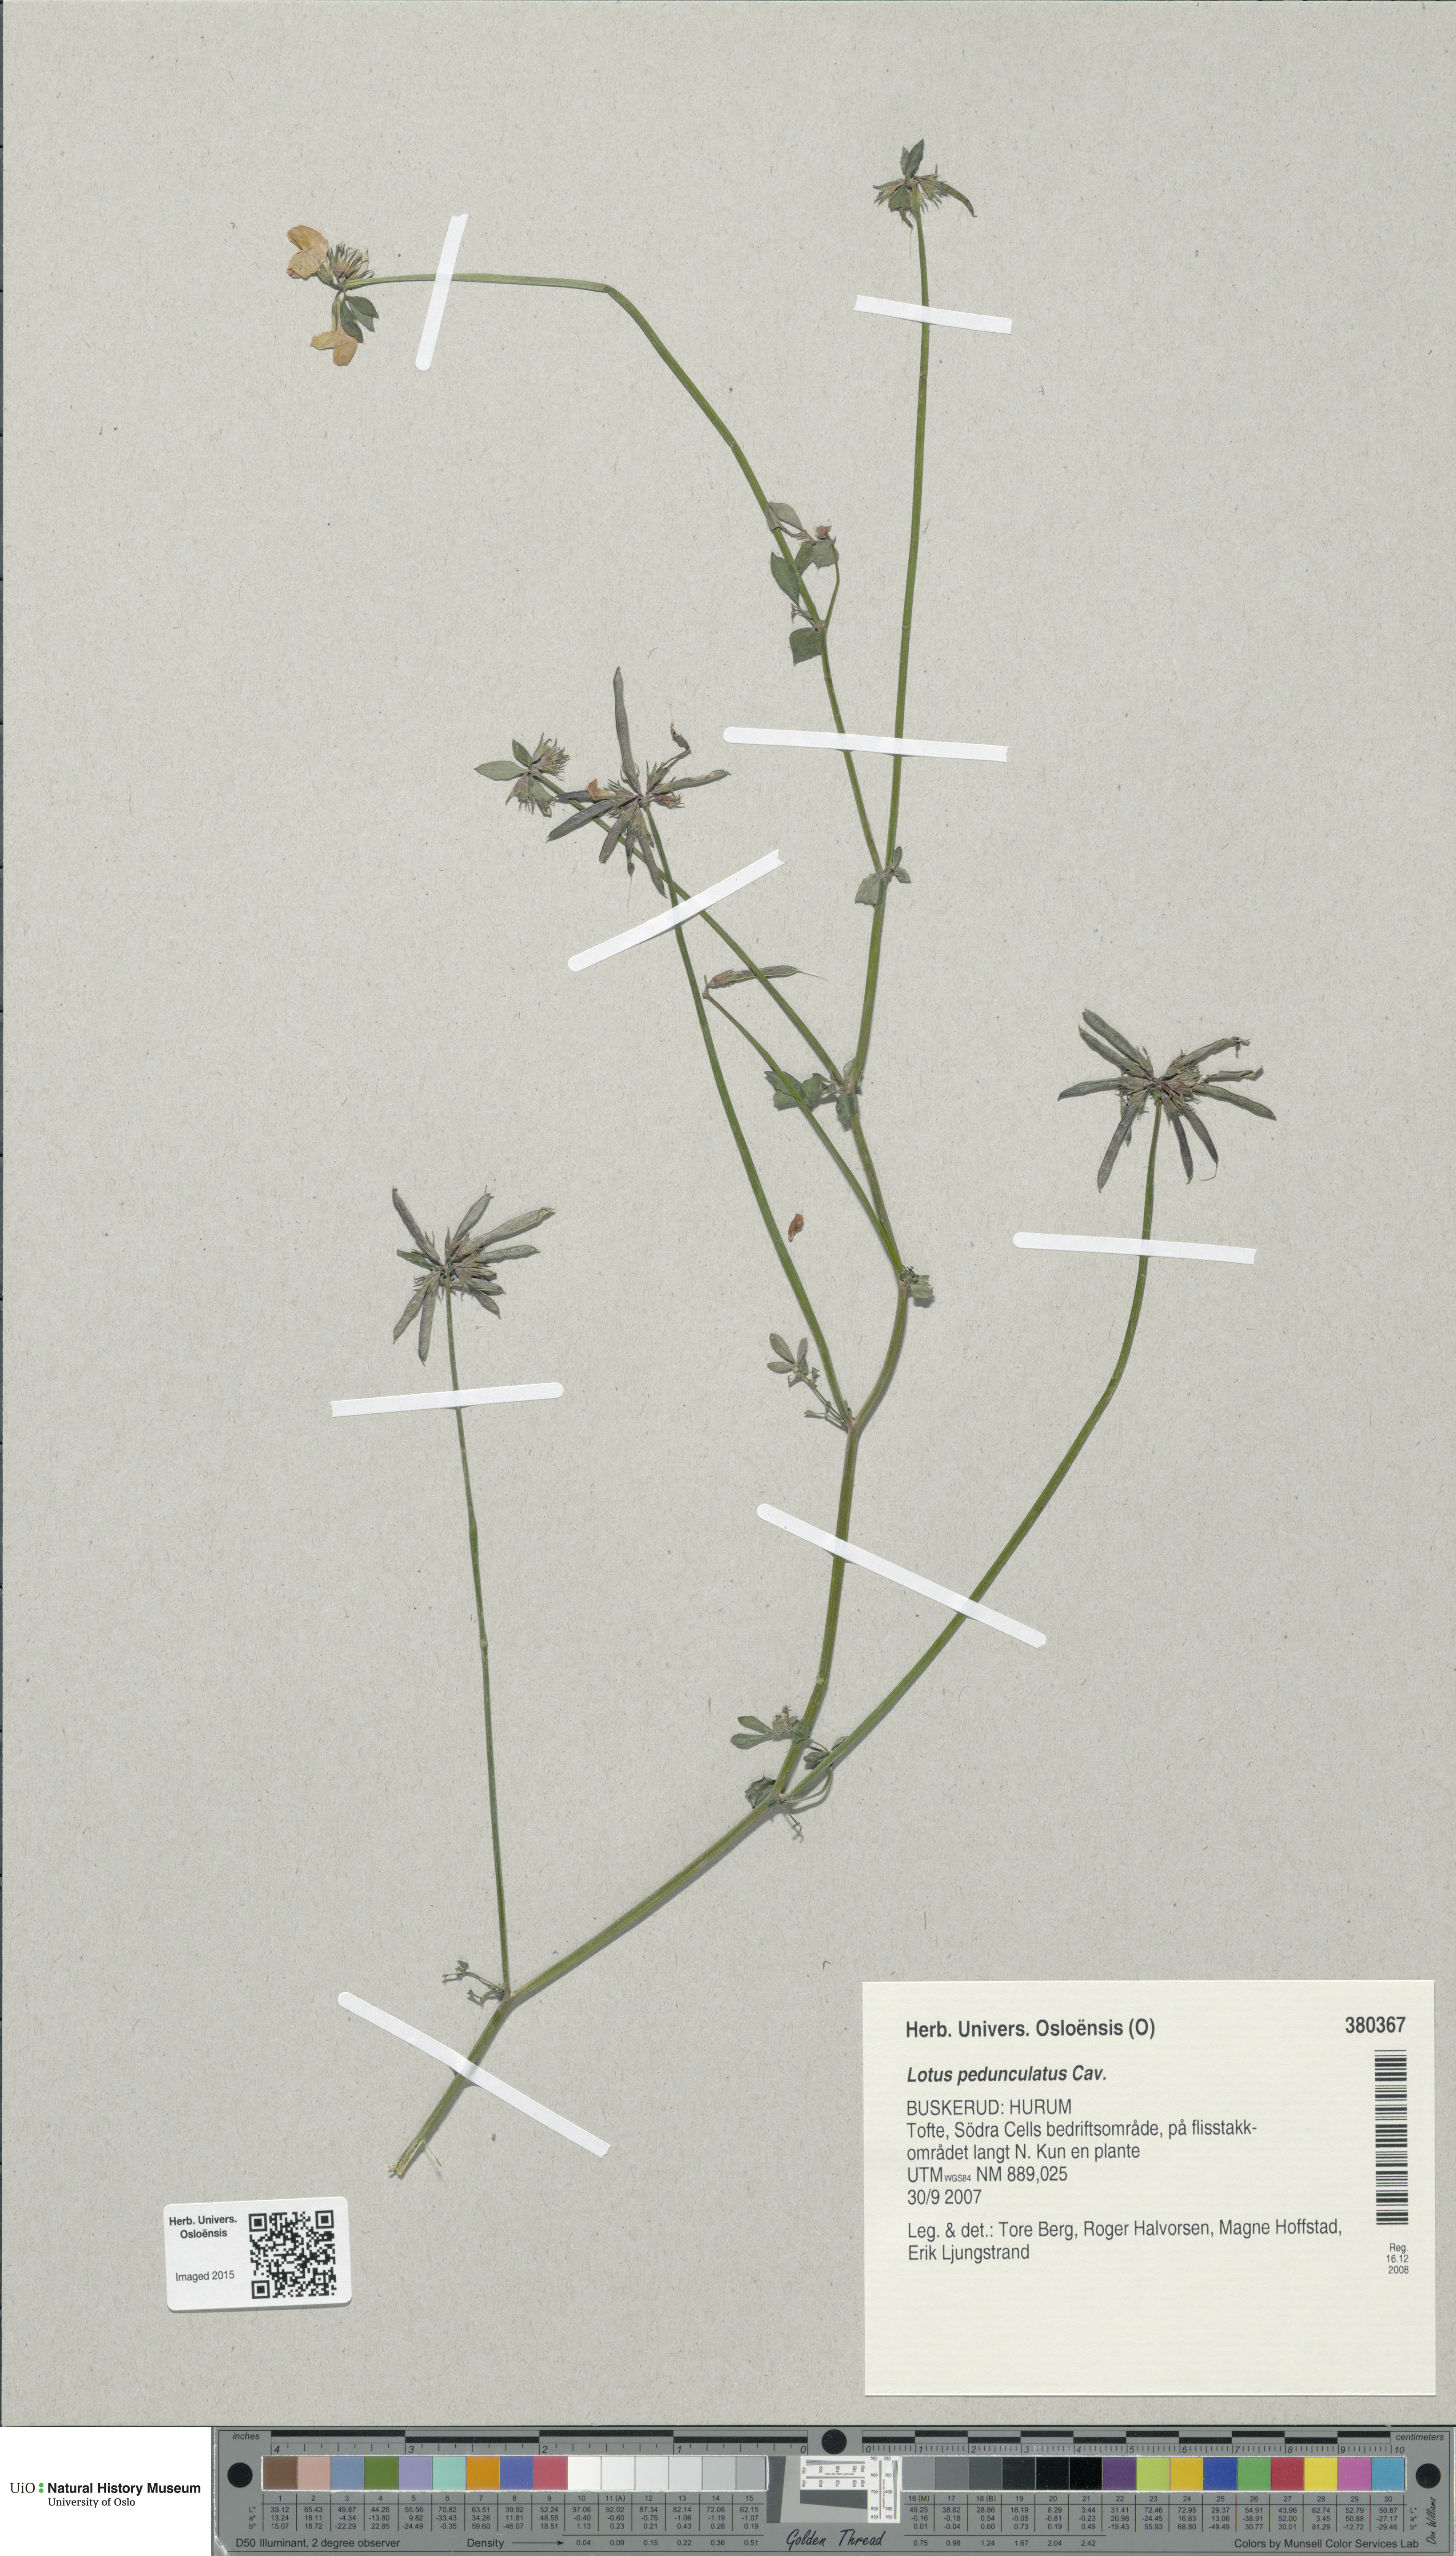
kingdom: Plantae
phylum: Tracheophyta
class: Magnoliopsida
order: Fabales
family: Fabaceae
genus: Lotus
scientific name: Lotus pedunculatus
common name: Greater birdsfoot-trefoil
